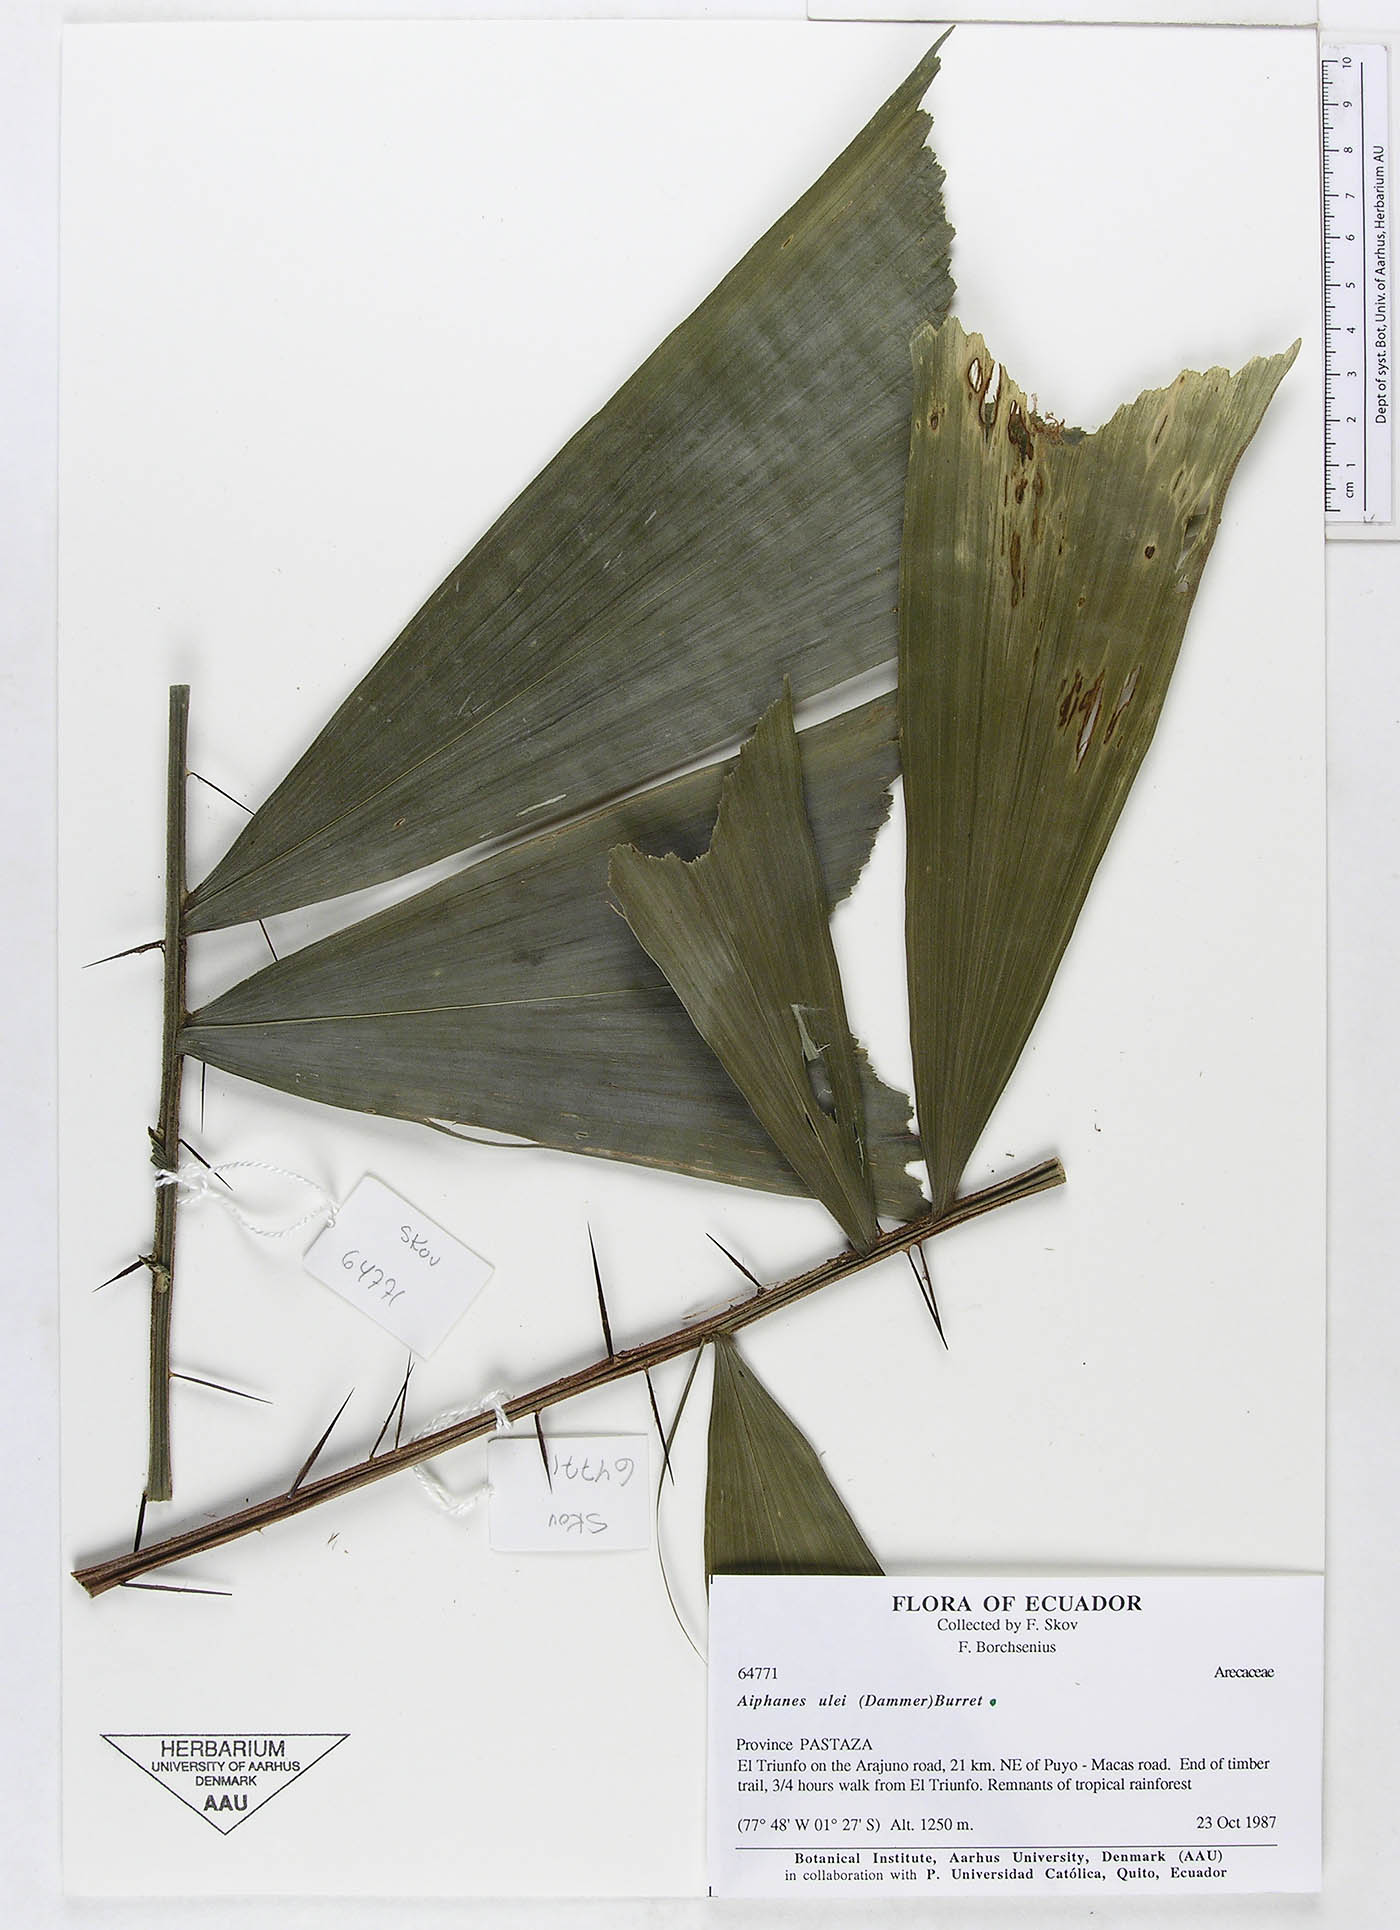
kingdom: Plantae
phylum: Tracheophyta
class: Liliopsida
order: Arecales
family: Arecaceae
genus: Aiphanes
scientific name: Aiphanes ulei
